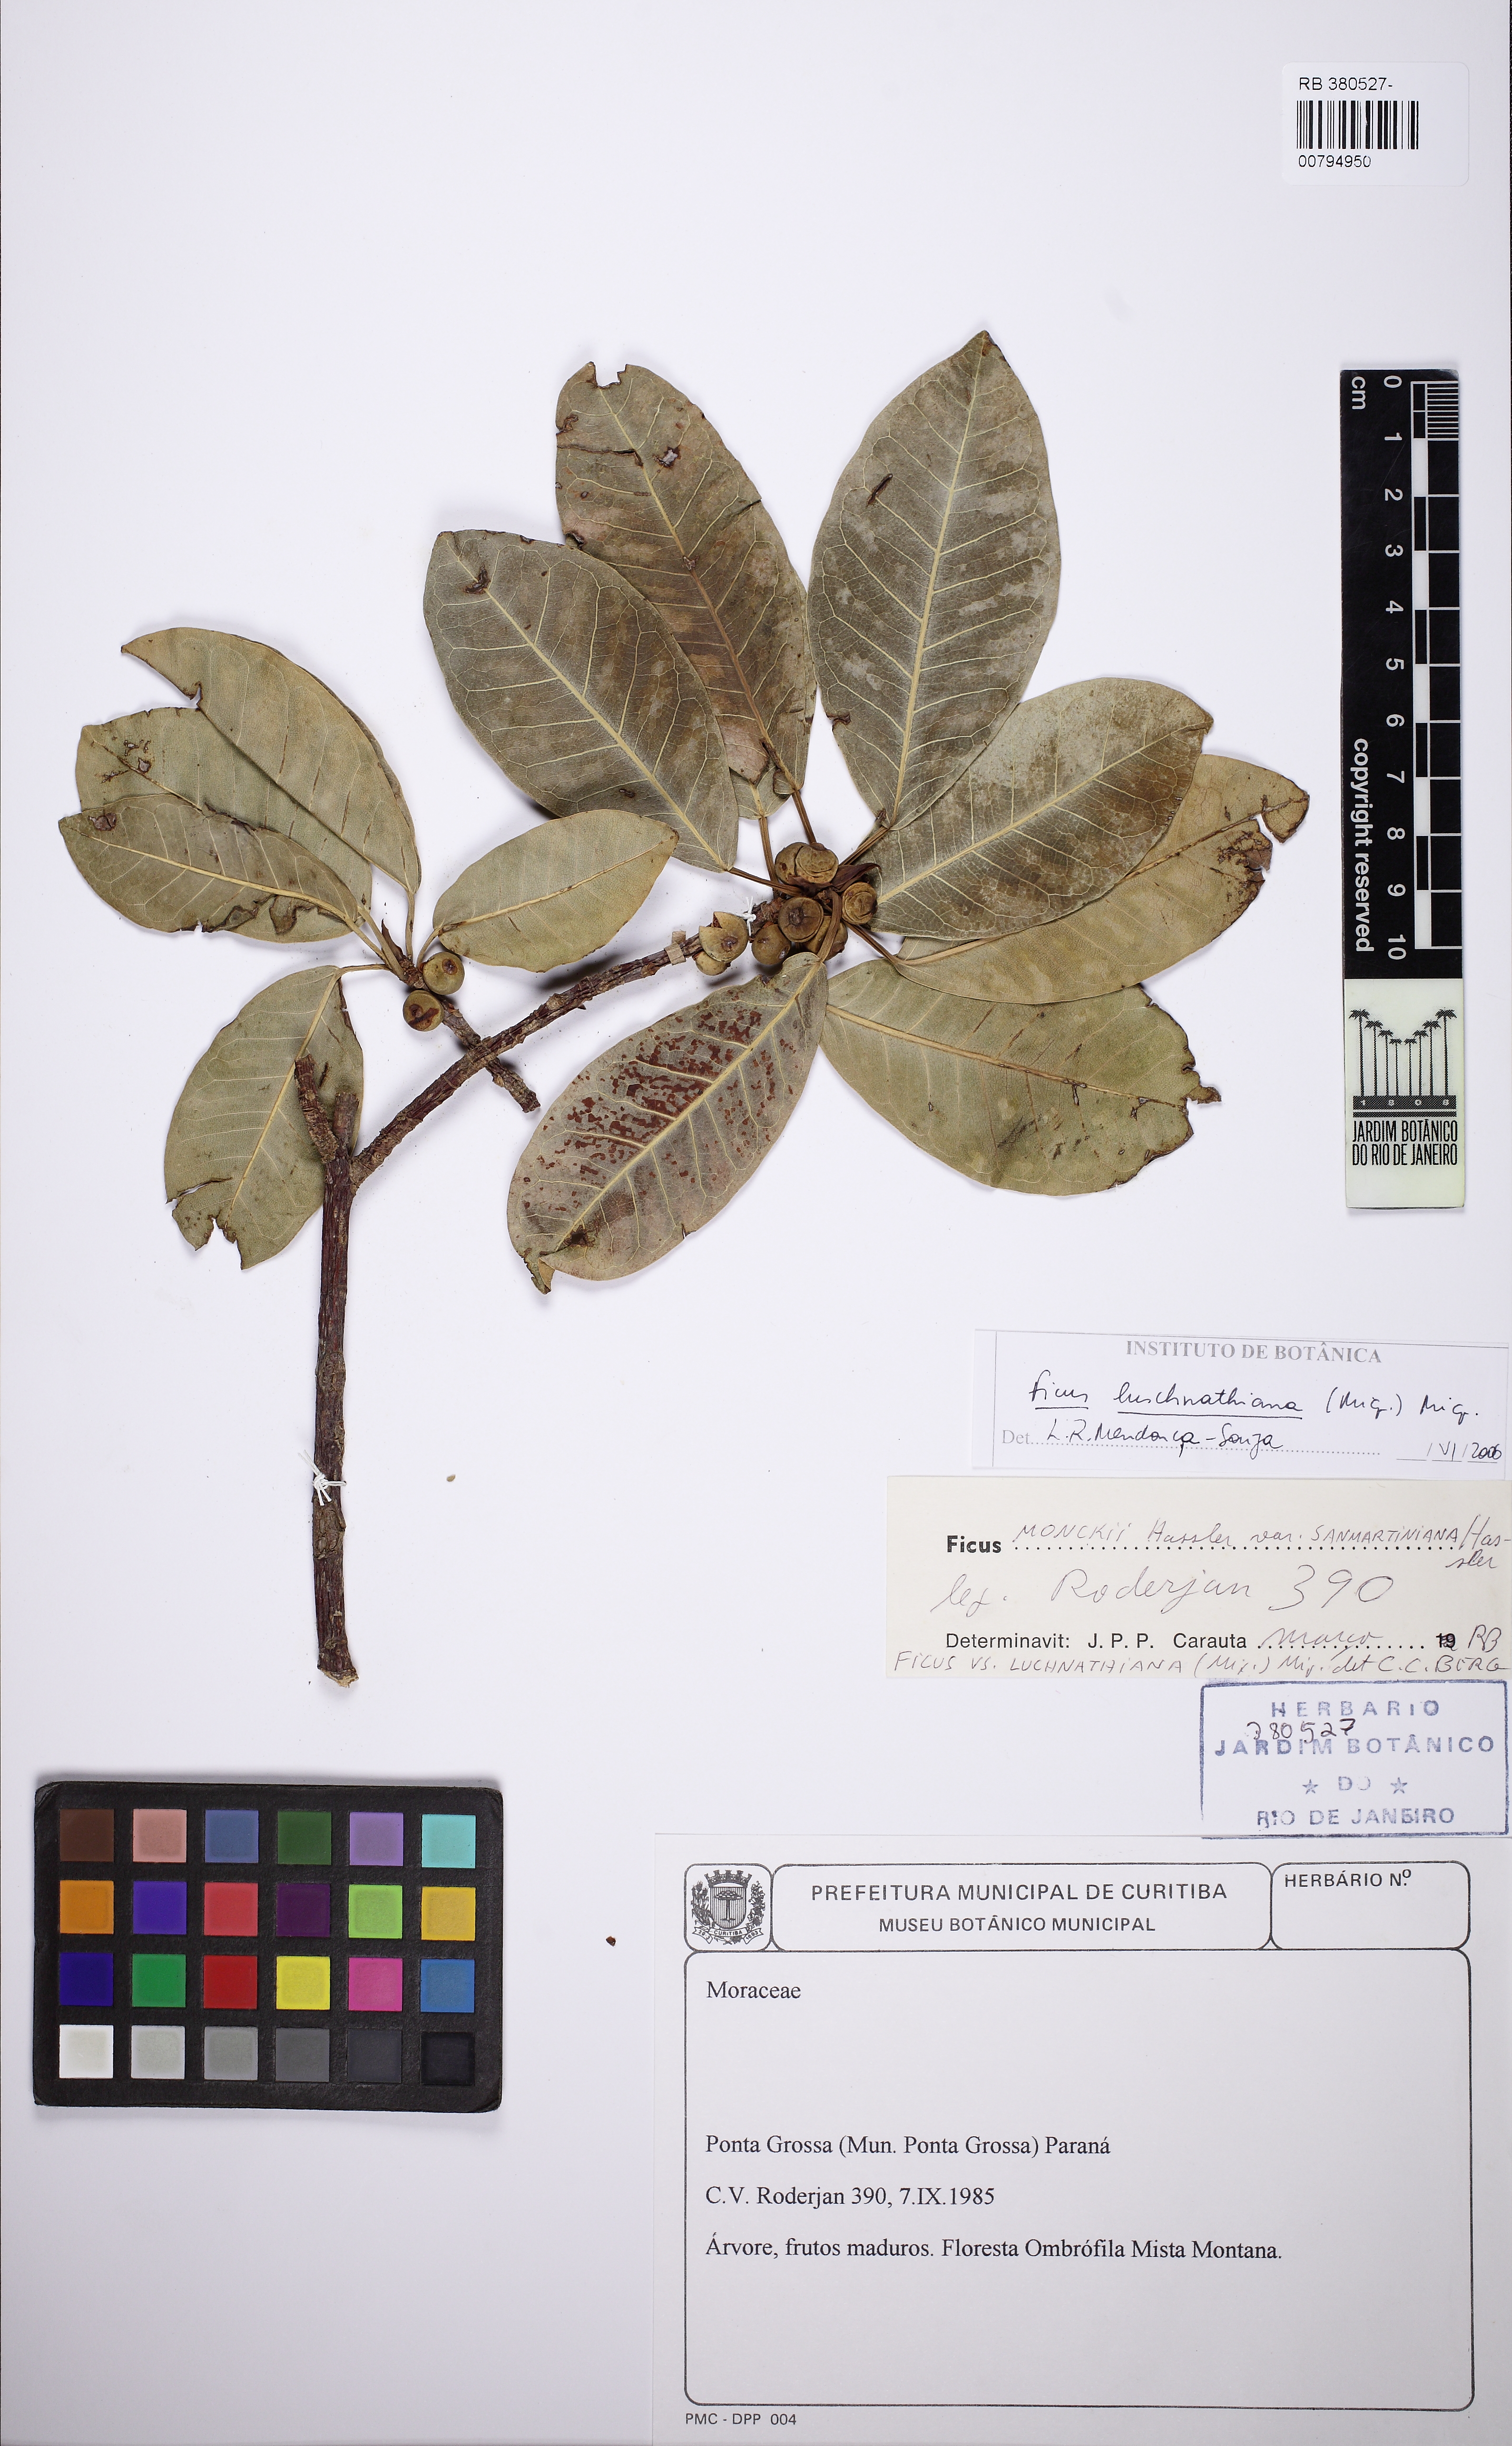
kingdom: Plantae
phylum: Tracheophyta
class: Magnoliopsida
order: Rosales
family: Moraceae
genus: Ficus
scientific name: Ficus luschnathiana
